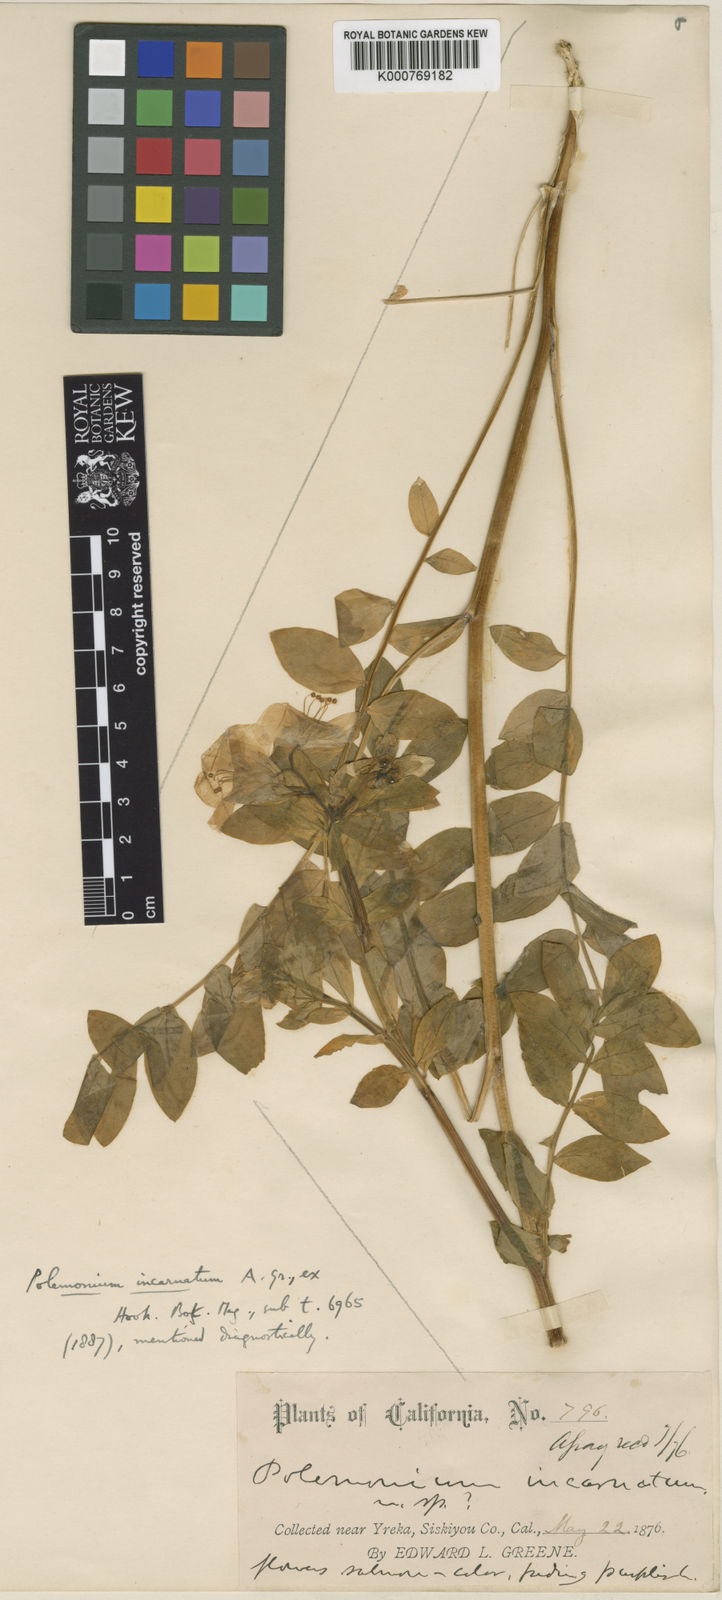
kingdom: Plantae
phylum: Tracheophyta
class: Magnoliopsida
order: Ericales
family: Polemoniaceae
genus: Polemonium
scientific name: Polemonium
